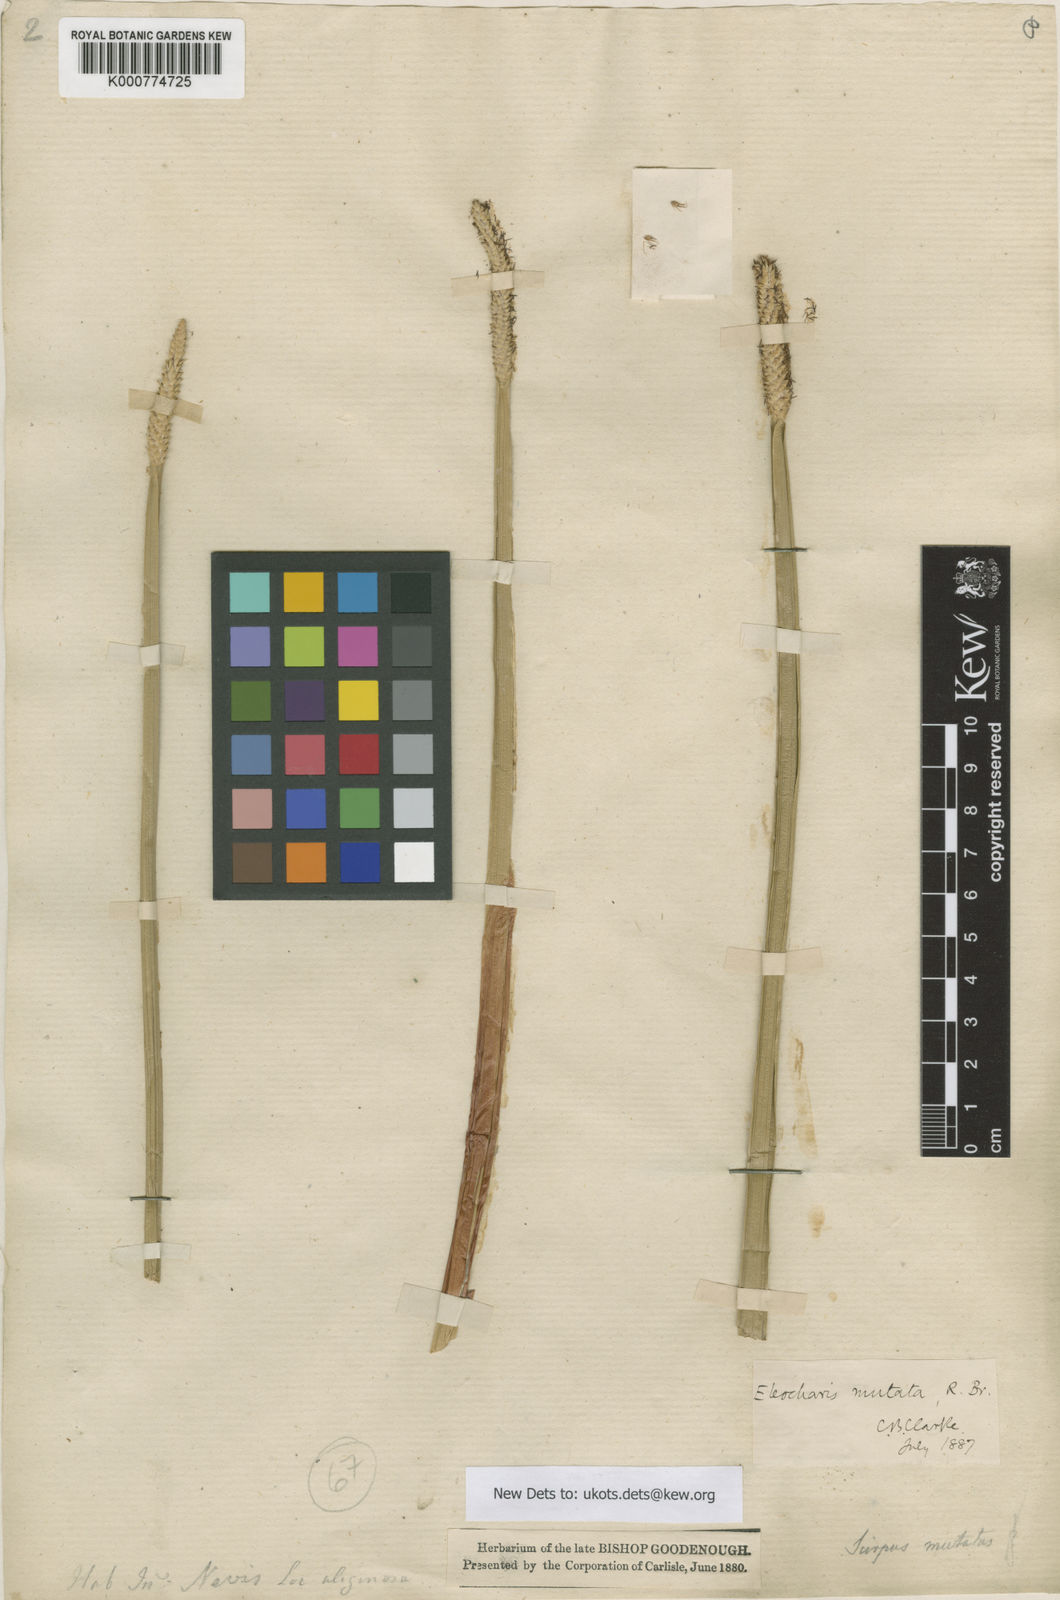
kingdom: Plantae
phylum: Tracheophyta
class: Liliopsida
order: Poales
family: Cyperaceae
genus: Eleocharis
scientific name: Eleocharis mutata
